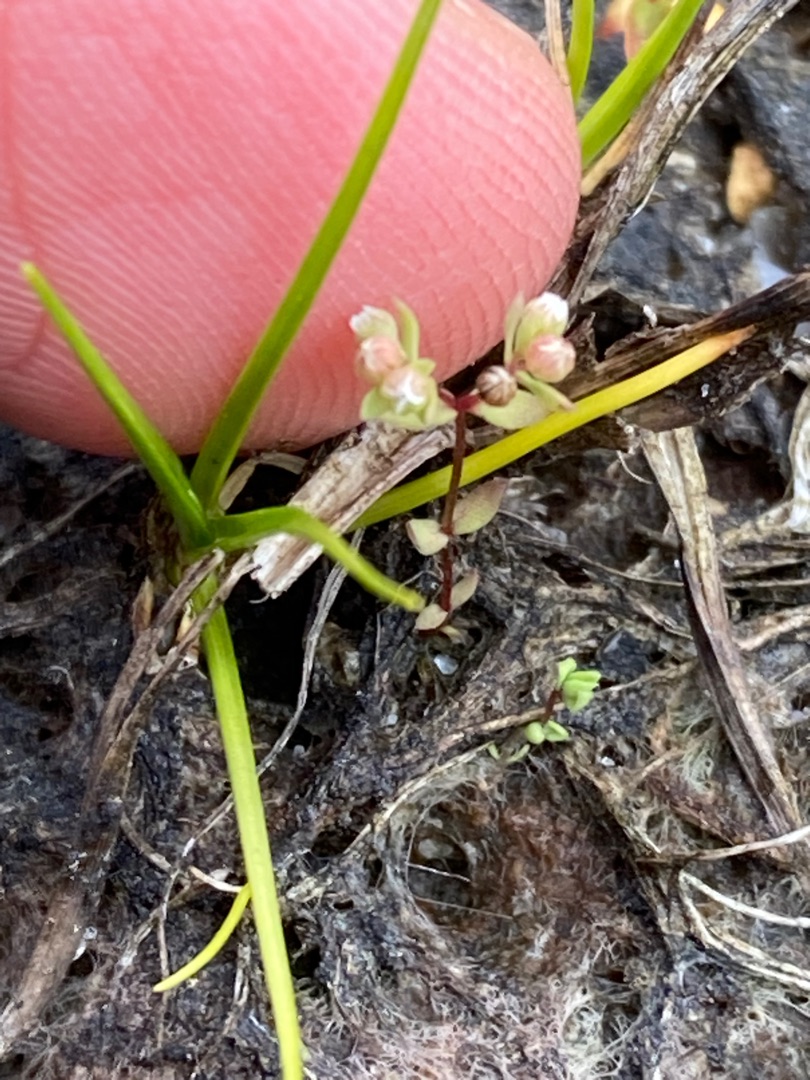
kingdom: Plantae
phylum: Tracheophyta
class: Magnoliopsida
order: Malpighiales
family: Linaceae
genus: Radiola
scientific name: Radiola linoides
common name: Tusindfrø
